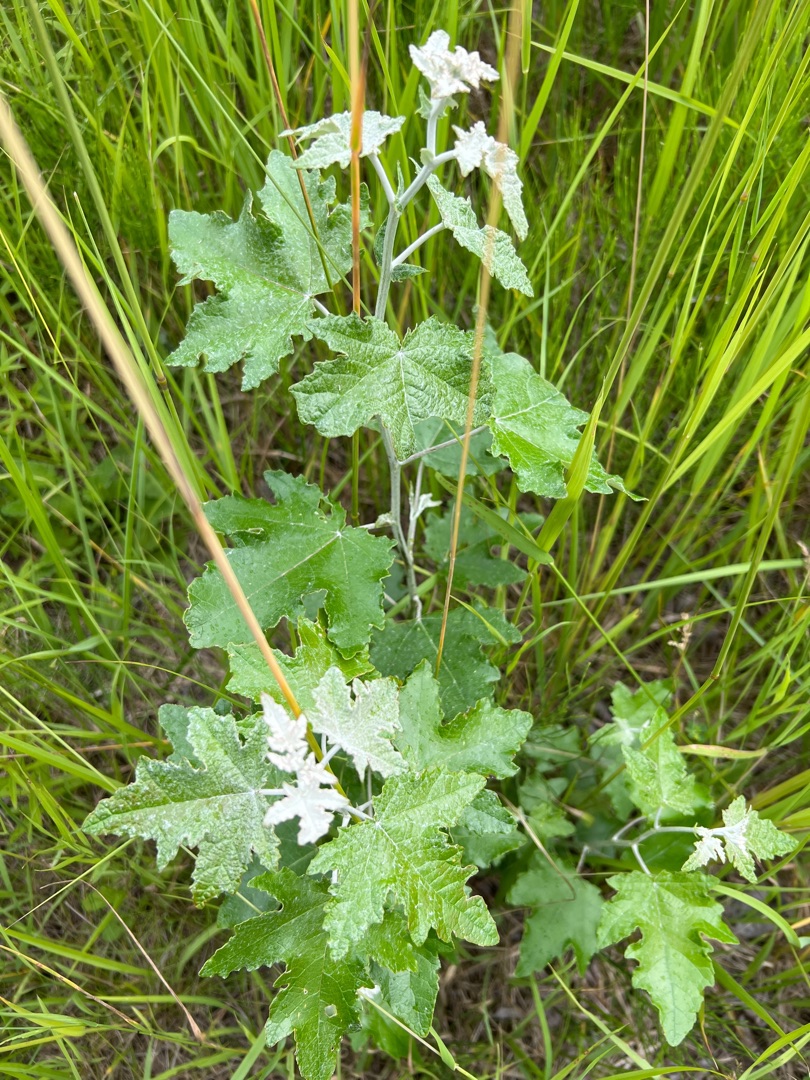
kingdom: Plantae
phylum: Tracheophyta
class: Magnoliopsida
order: Malpighiales
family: Salicaceae
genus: Populus
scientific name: Populus alba
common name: Sølv-poppel
